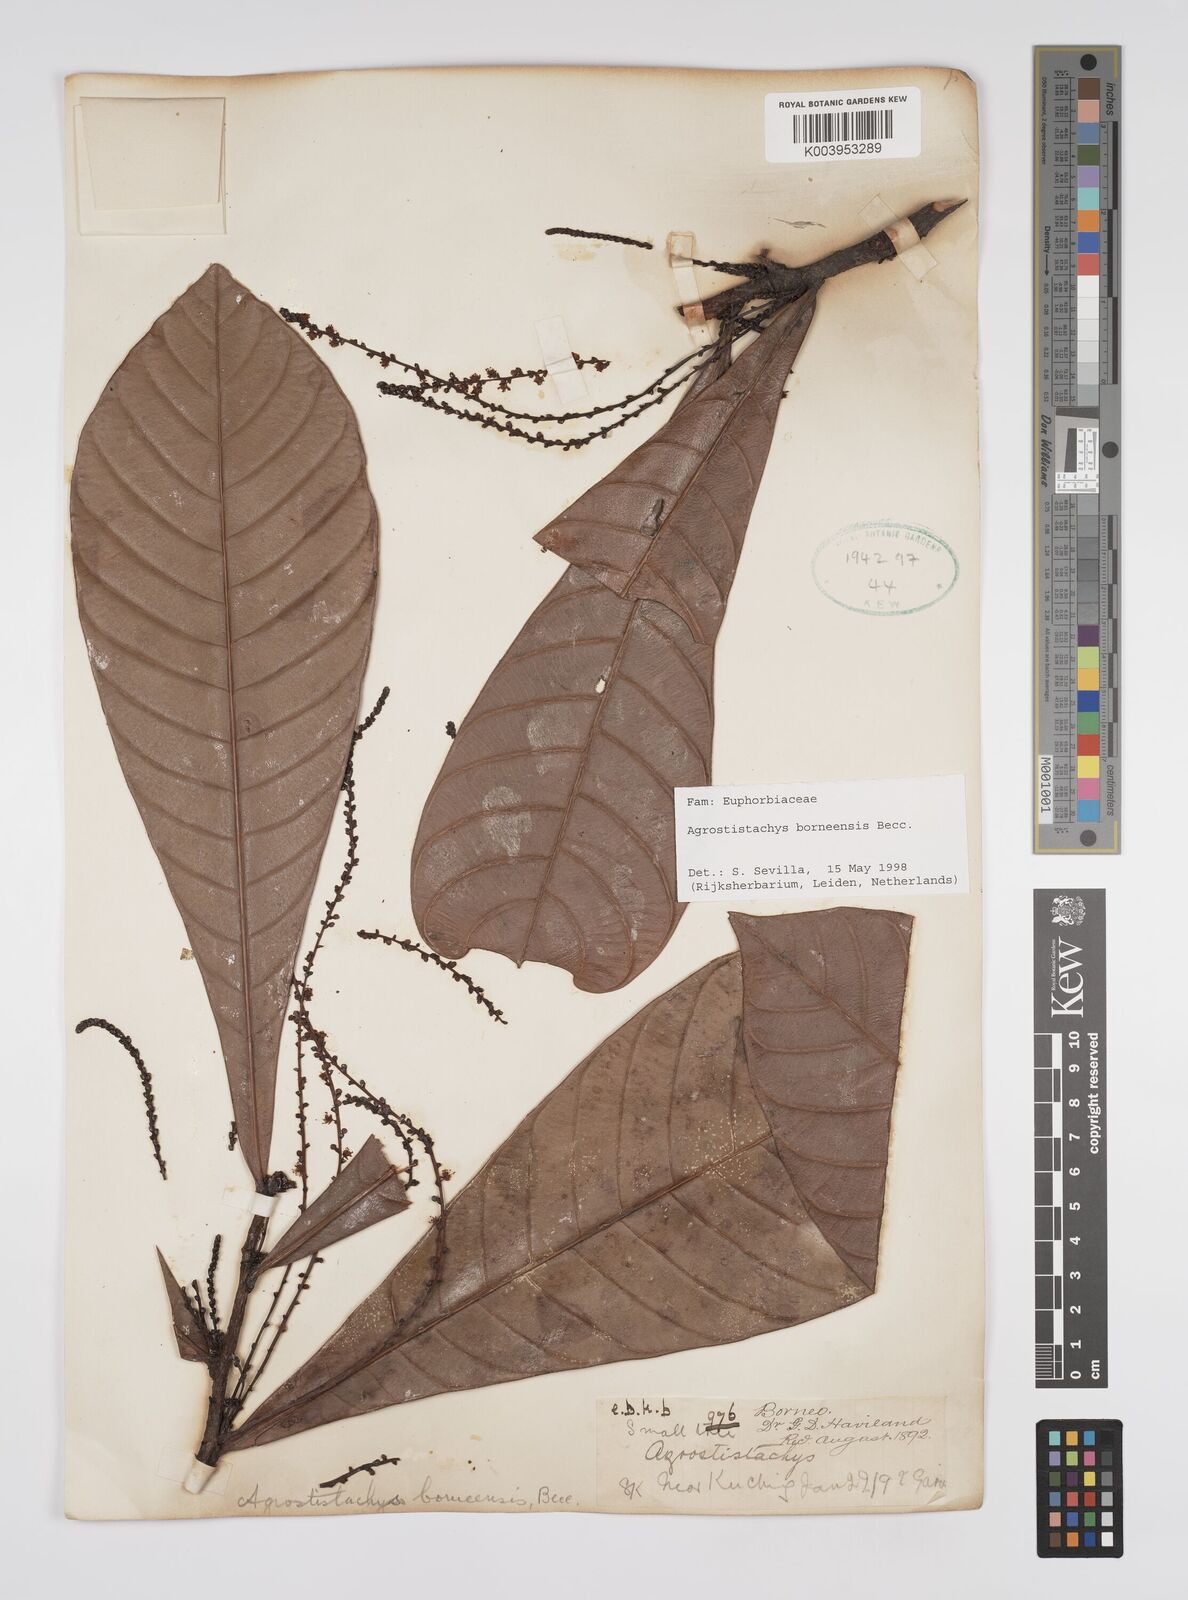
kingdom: Plantae
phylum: Tracheophyta
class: Magnoliopsida
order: Malpighiales
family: Euphorbiaceae
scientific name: Euphorbiaceae
